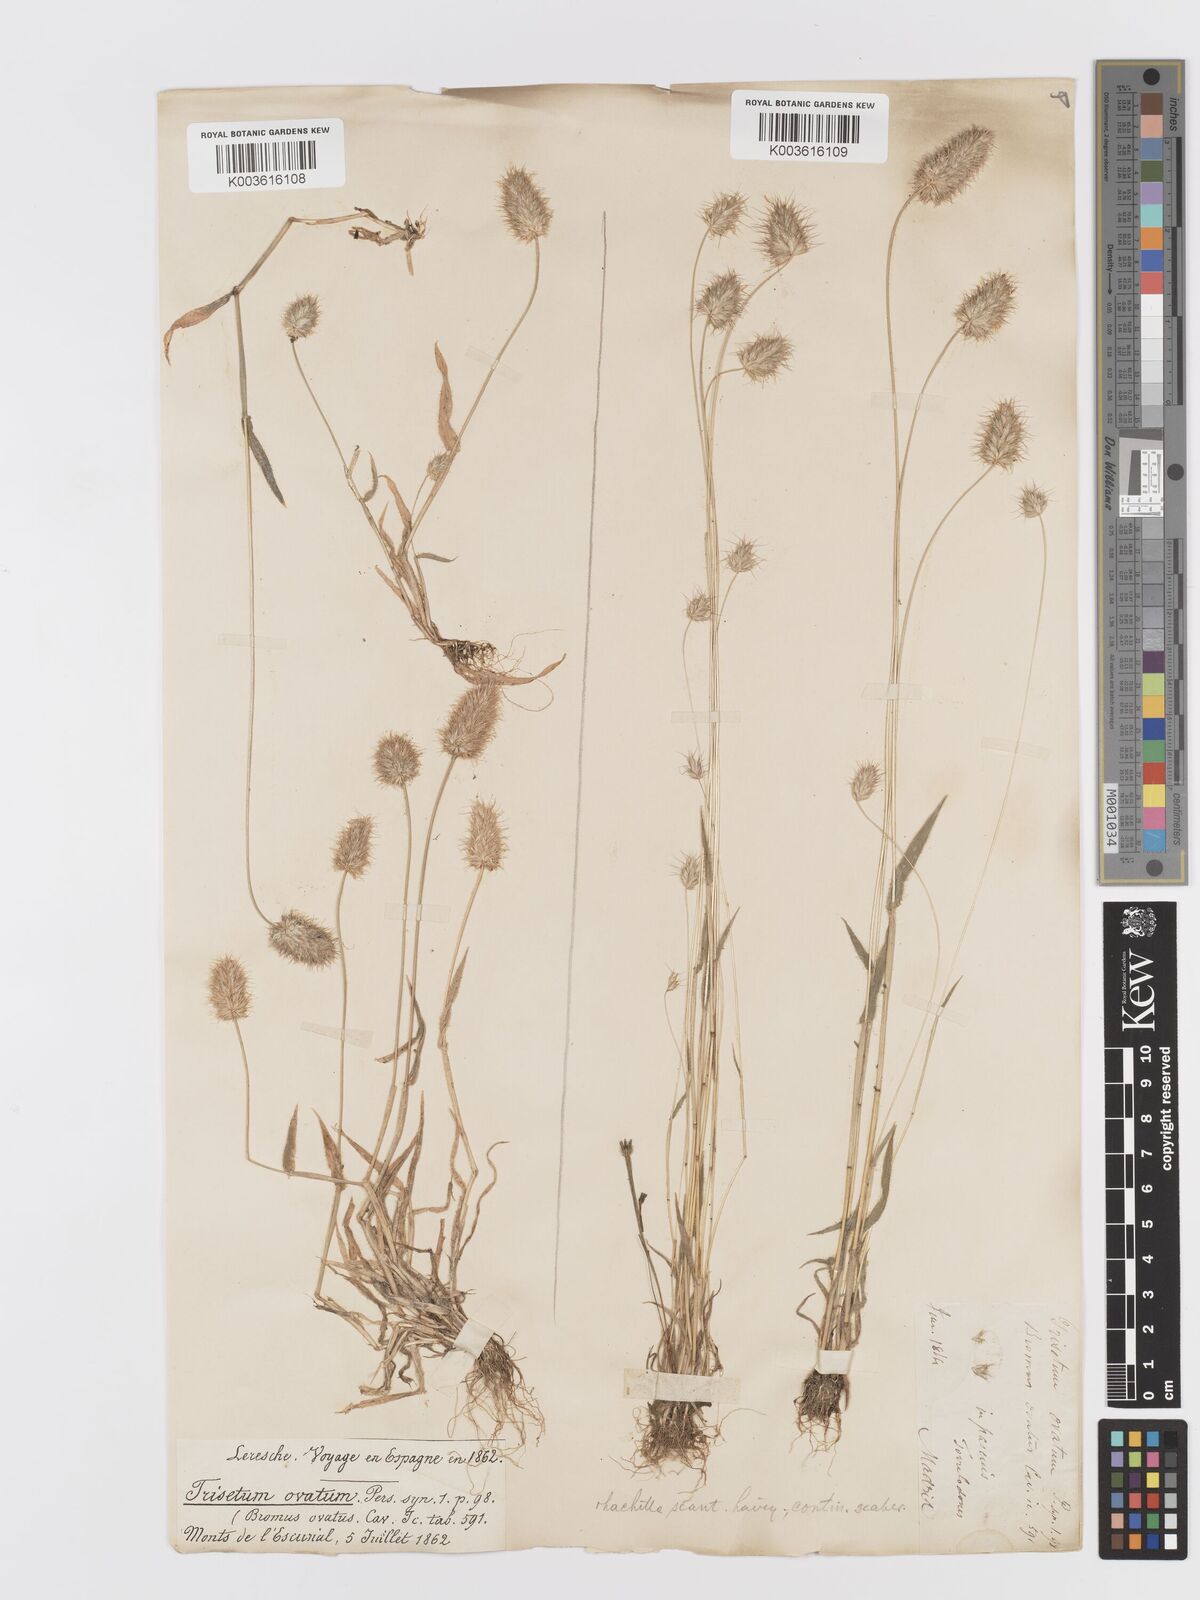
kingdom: Plantae
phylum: Tracheophyta
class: Liliopsida
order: Poales
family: Poaceae
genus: Trisetaria
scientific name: Trisetaria ovata
